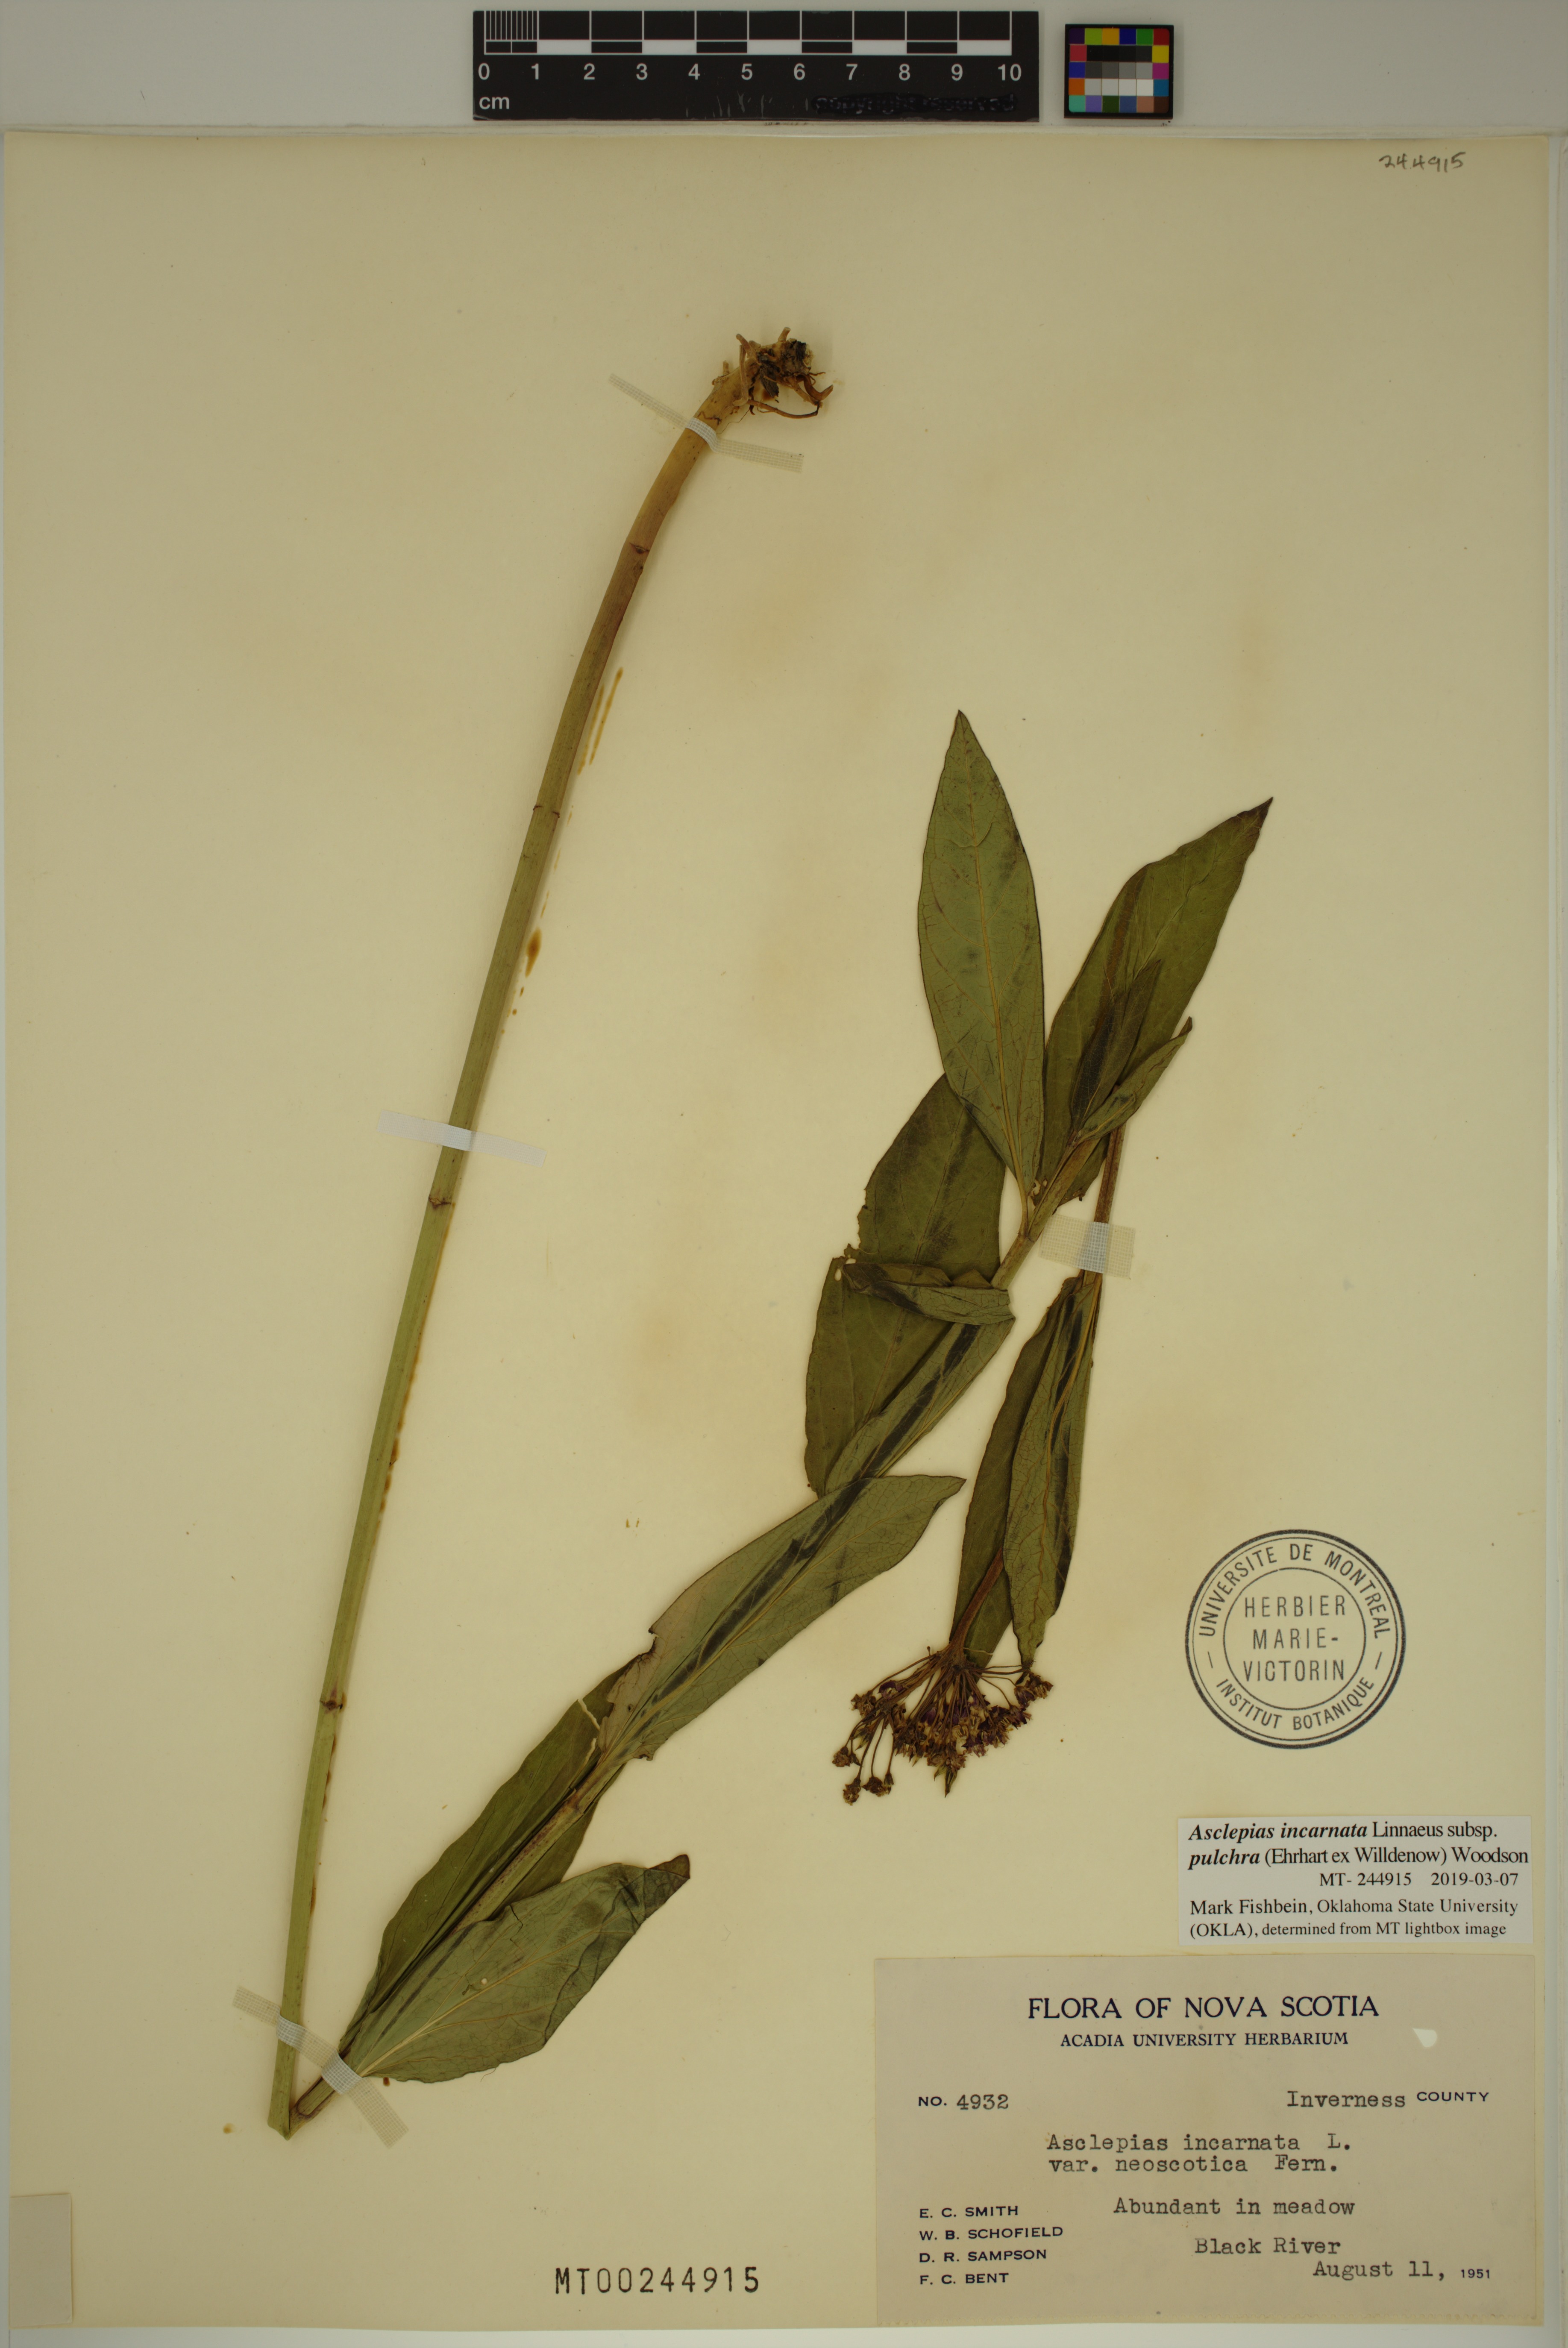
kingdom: Plantae
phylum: Tracheophyta
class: Magnoliopsida
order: Gentianales
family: Apocynaceae
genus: Asclepias
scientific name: Asclepias incarnata
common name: Swamp milkweed
